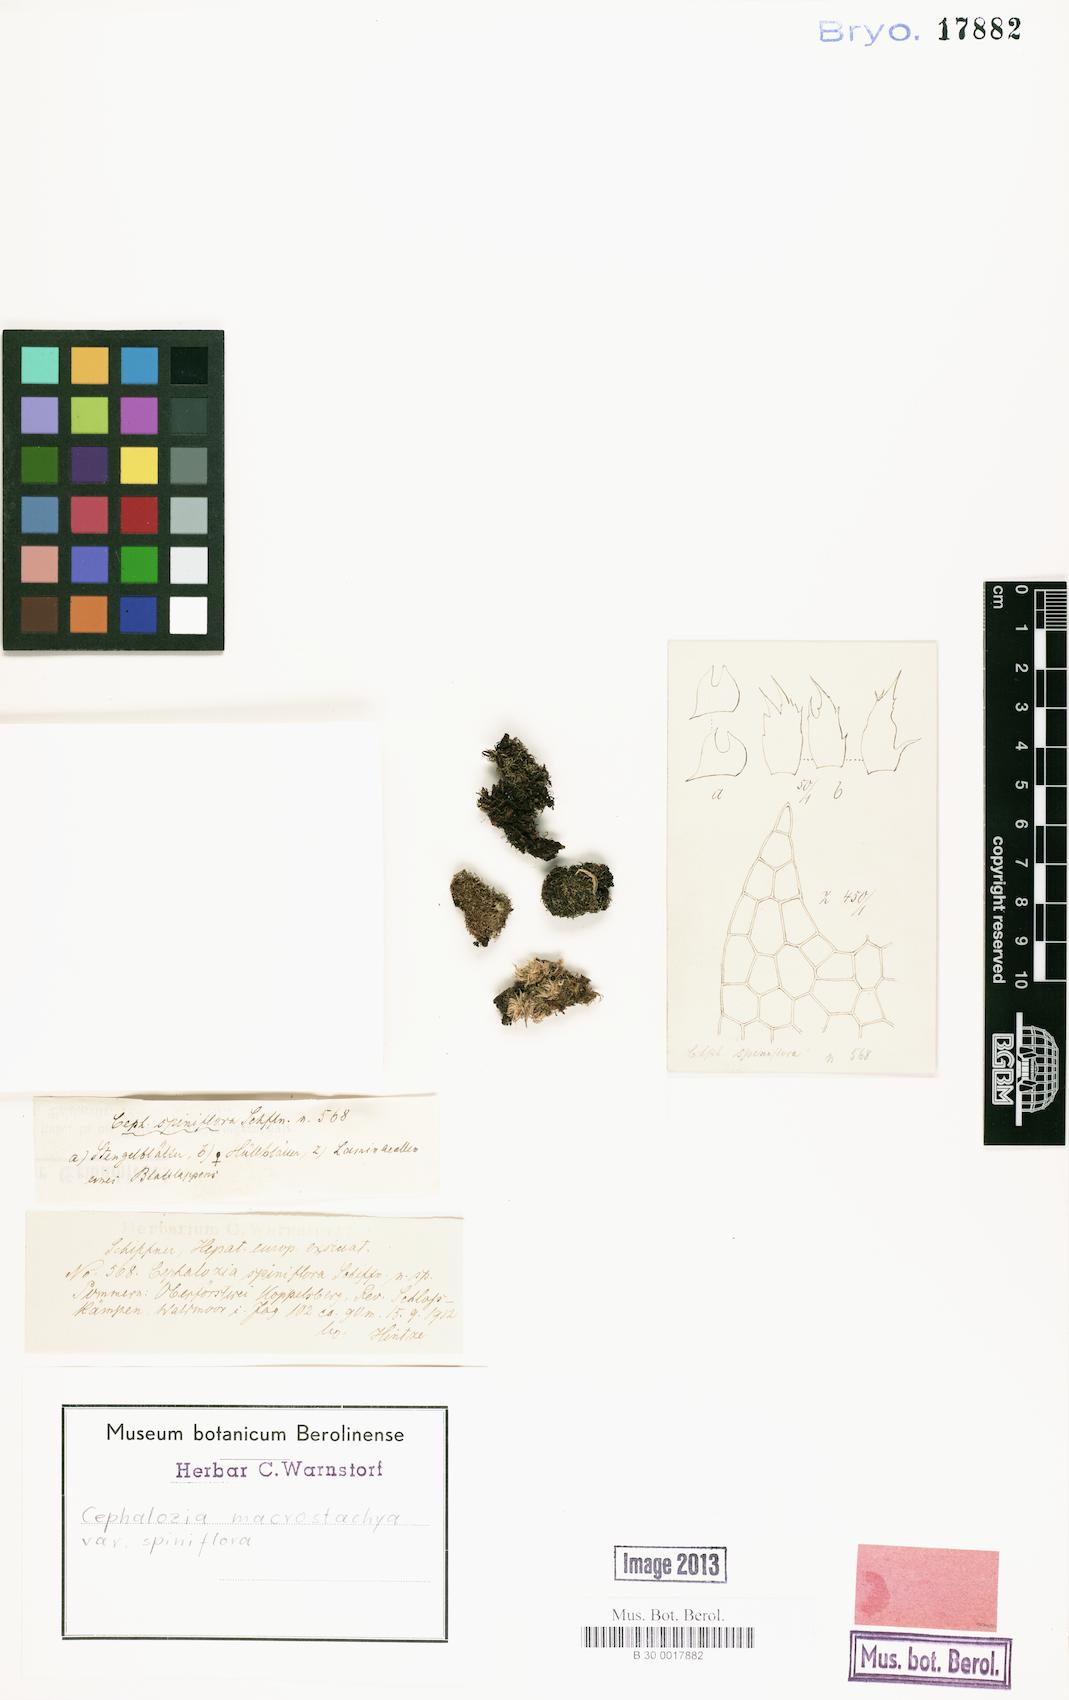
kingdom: Plantae
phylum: Marchantiophyta
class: Jungermanniopsida
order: Jungermanniales
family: Cephaloziaceae
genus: Fuscocephaloziopsis
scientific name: Fuscocephaloziopsis macrostachya
